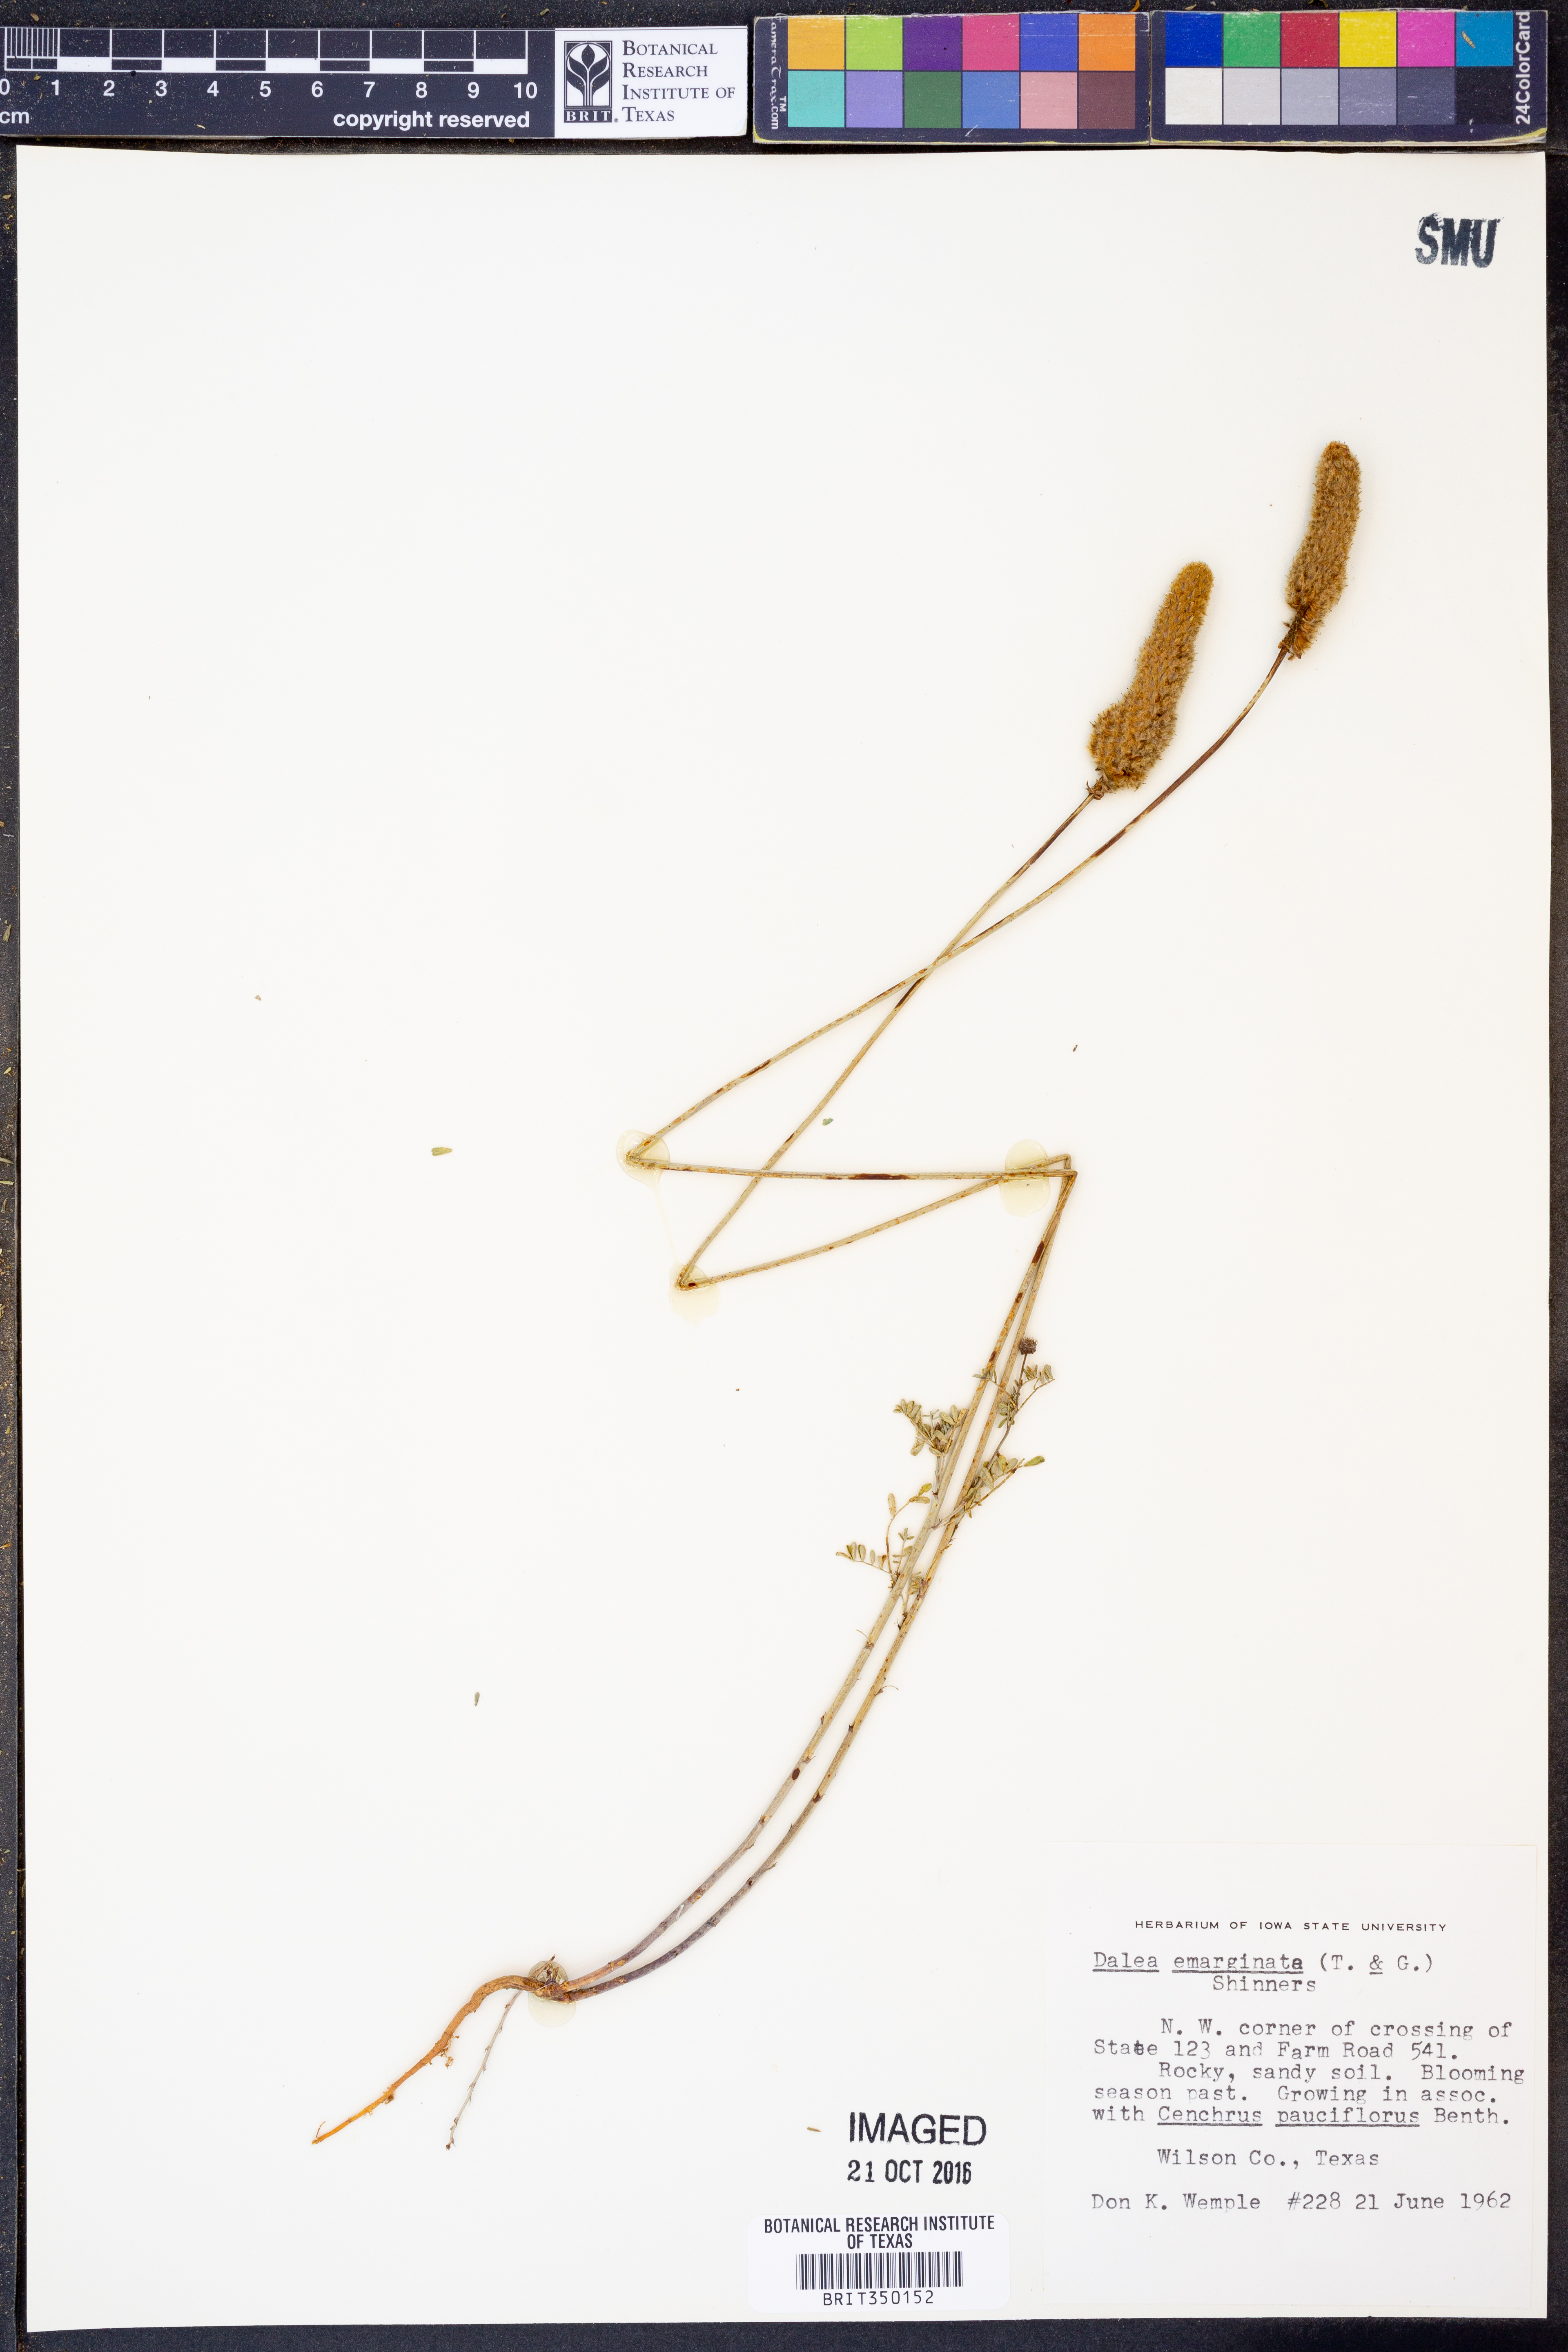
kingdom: Plantae
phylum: Tracheophyta
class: Magnoliopsida
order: Fabales
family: Fabaceae
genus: Dalea
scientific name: Dalea emarginata
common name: Wedgeleaf prairie clover
